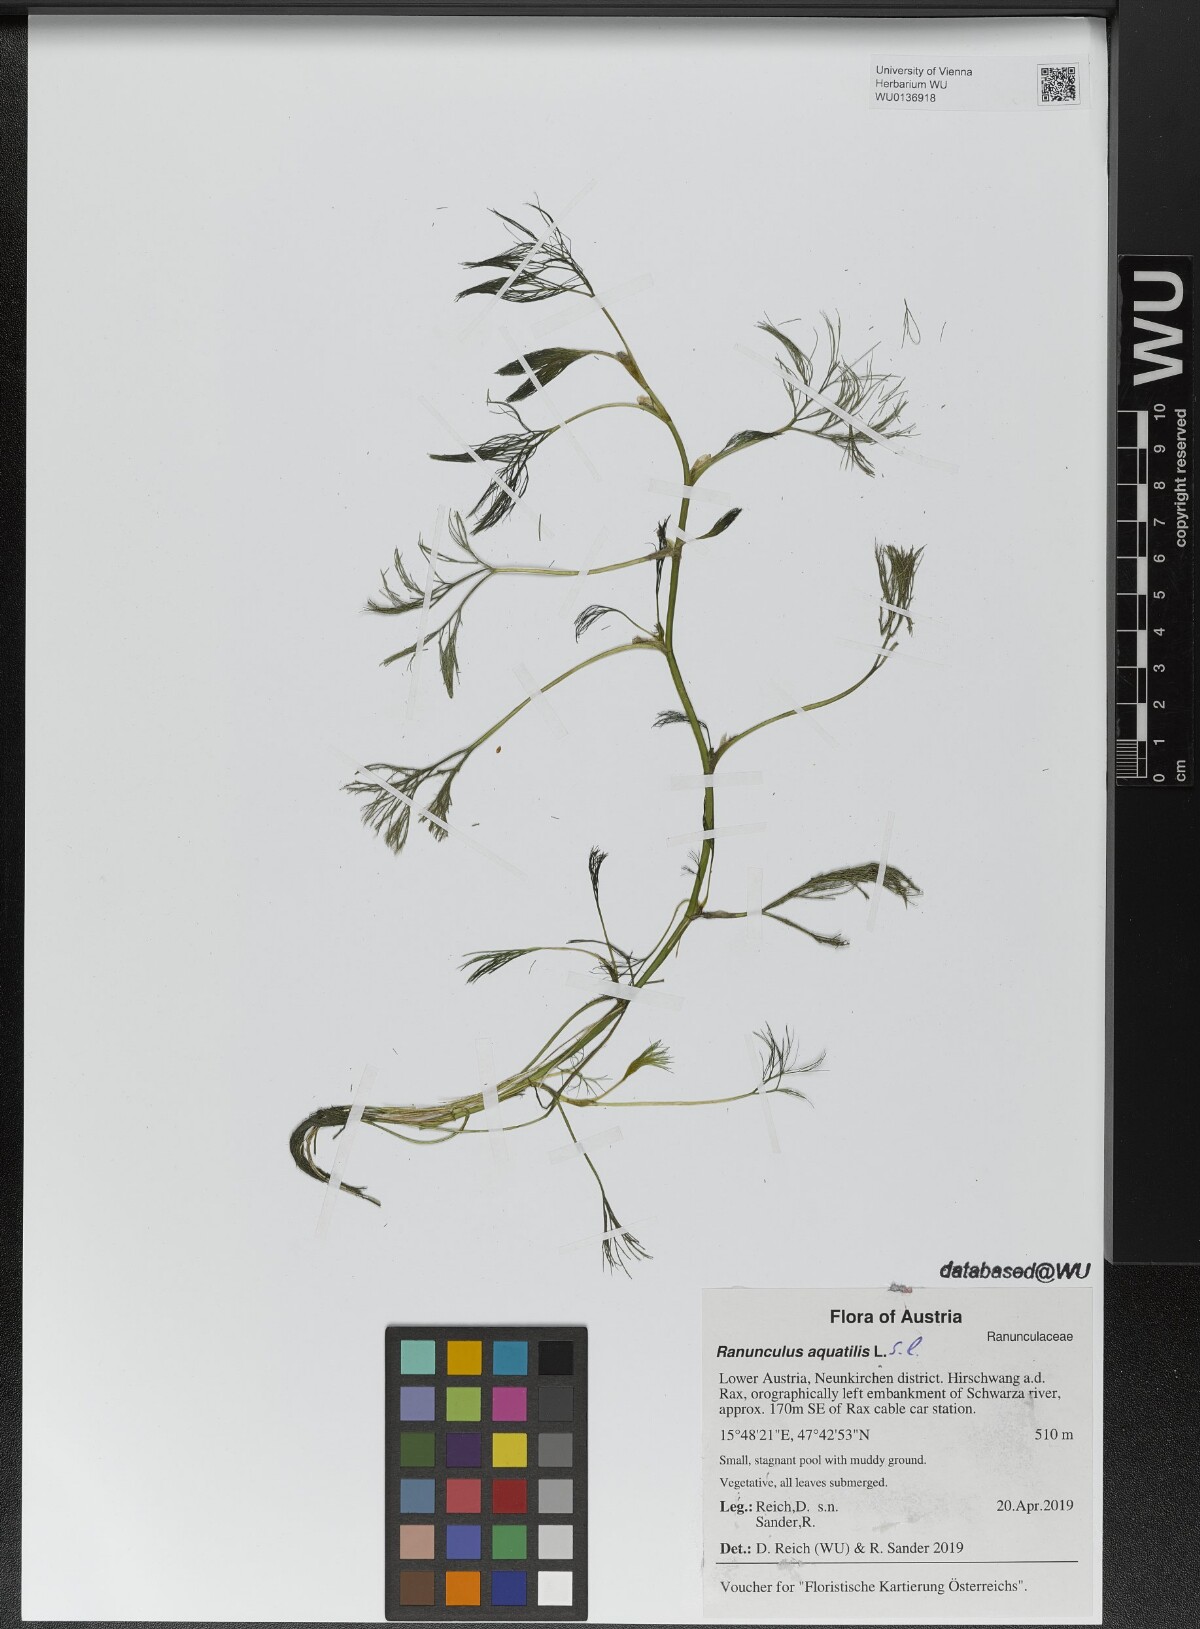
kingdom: Plantae
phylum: Tracheophyta
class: Magnoliopsida
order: Ranunculales
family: Ranunculaceae
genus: Ranunculus
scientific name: Ranunculus aquatilis
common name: Common water-crowfoot
